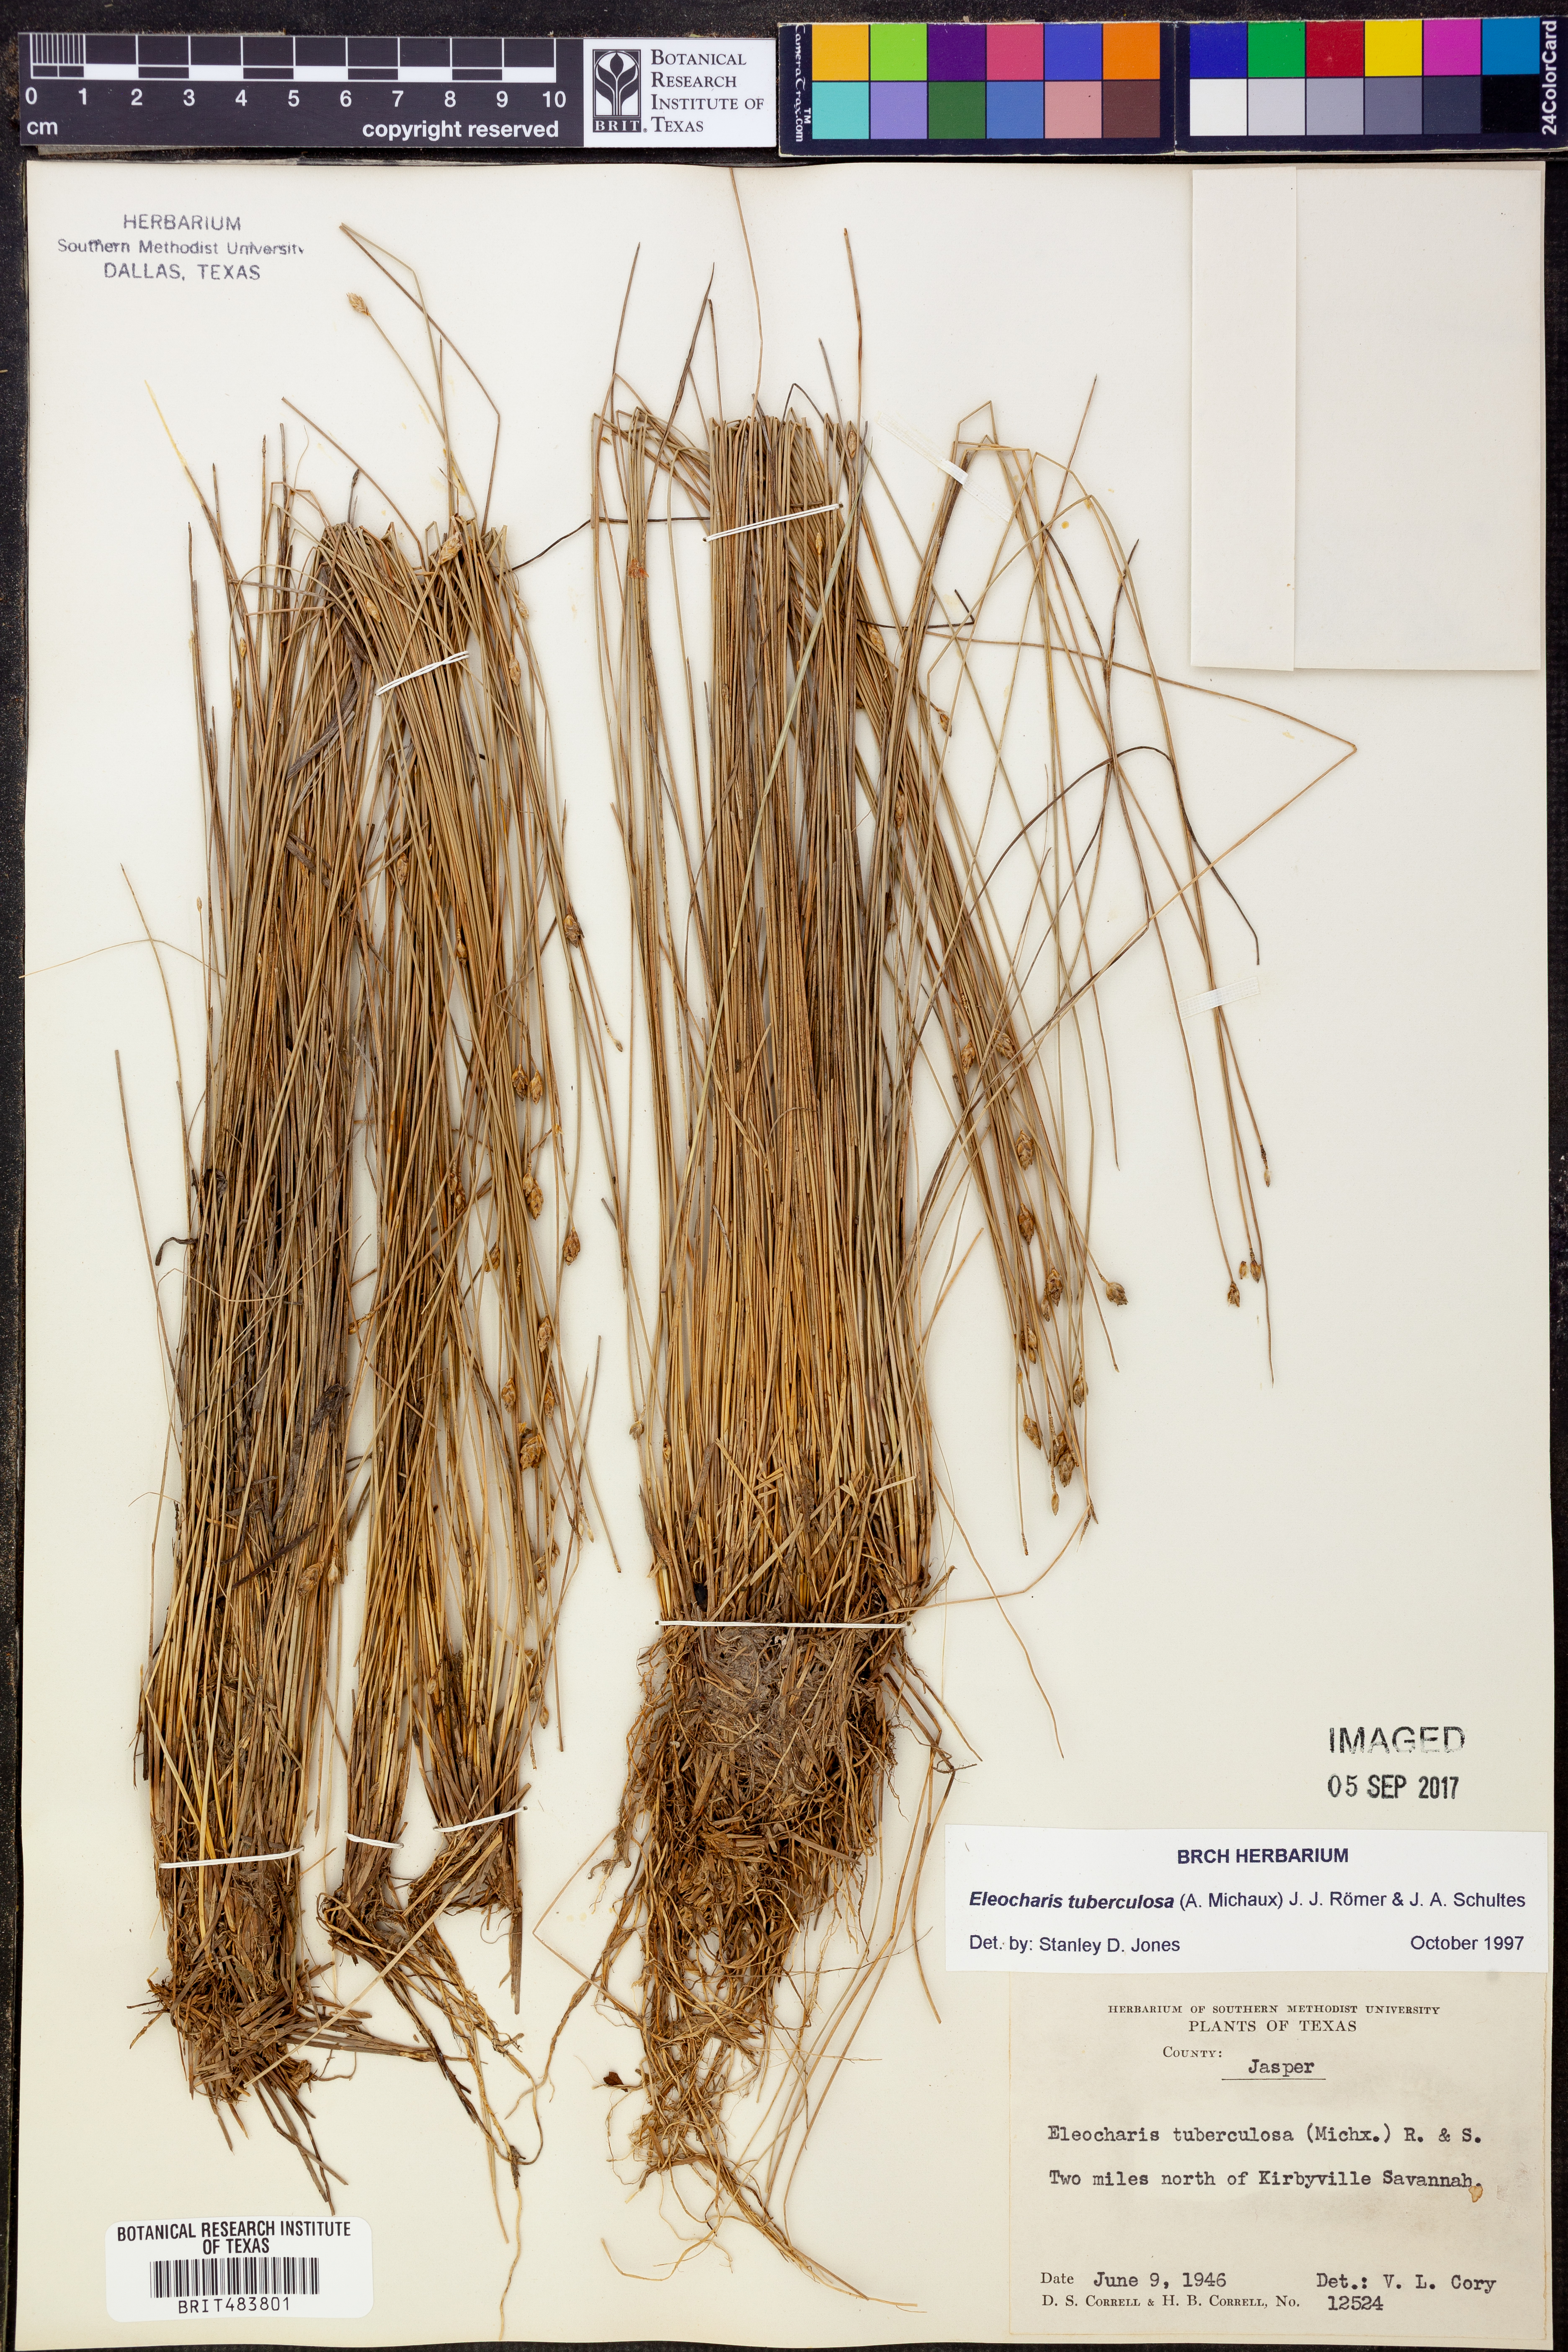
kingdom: Plantae
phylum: Tracheophyta
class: Liliopsida
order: Poales
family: Cyperaceae
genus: Eleocharis
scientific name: Eleocharis tuberculosa
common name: Cone-cup spikerush
